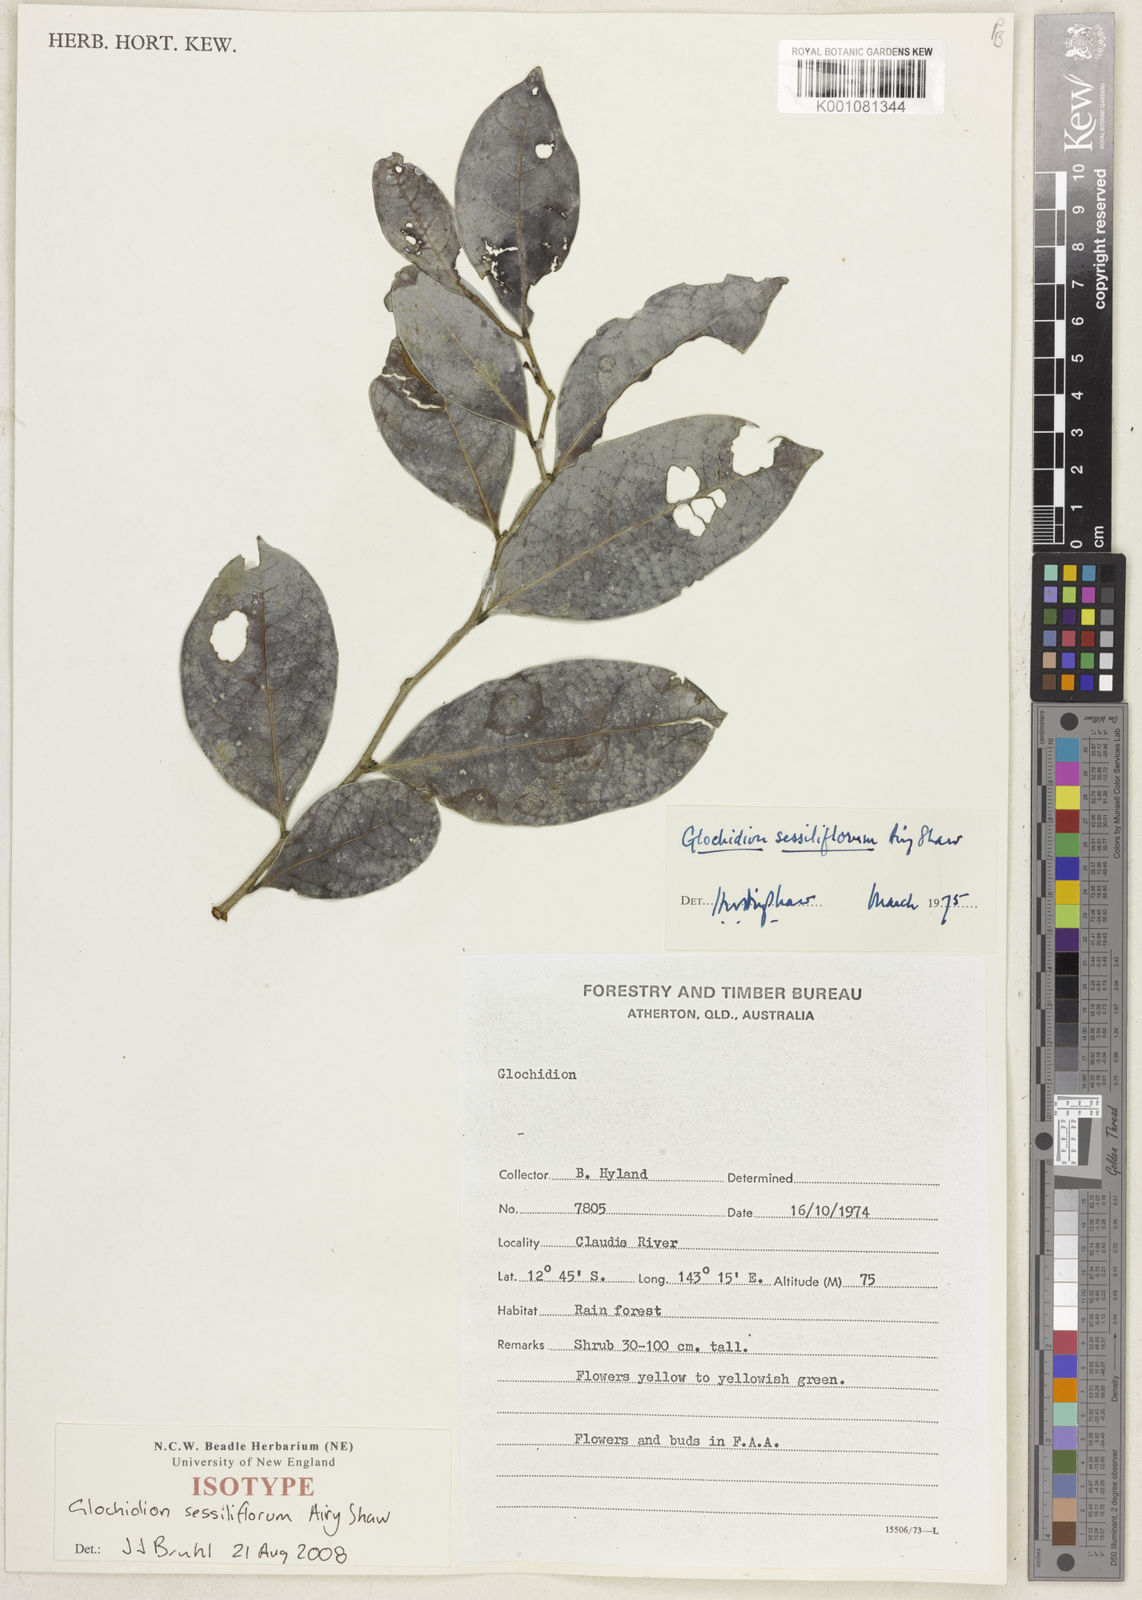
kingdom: Plantae
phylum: Tracheophyta
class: Magnoliopsida
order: Malpighiales
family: Phyllanthaceae
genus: Glochidion
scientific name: Glochidion sessiliflorum
